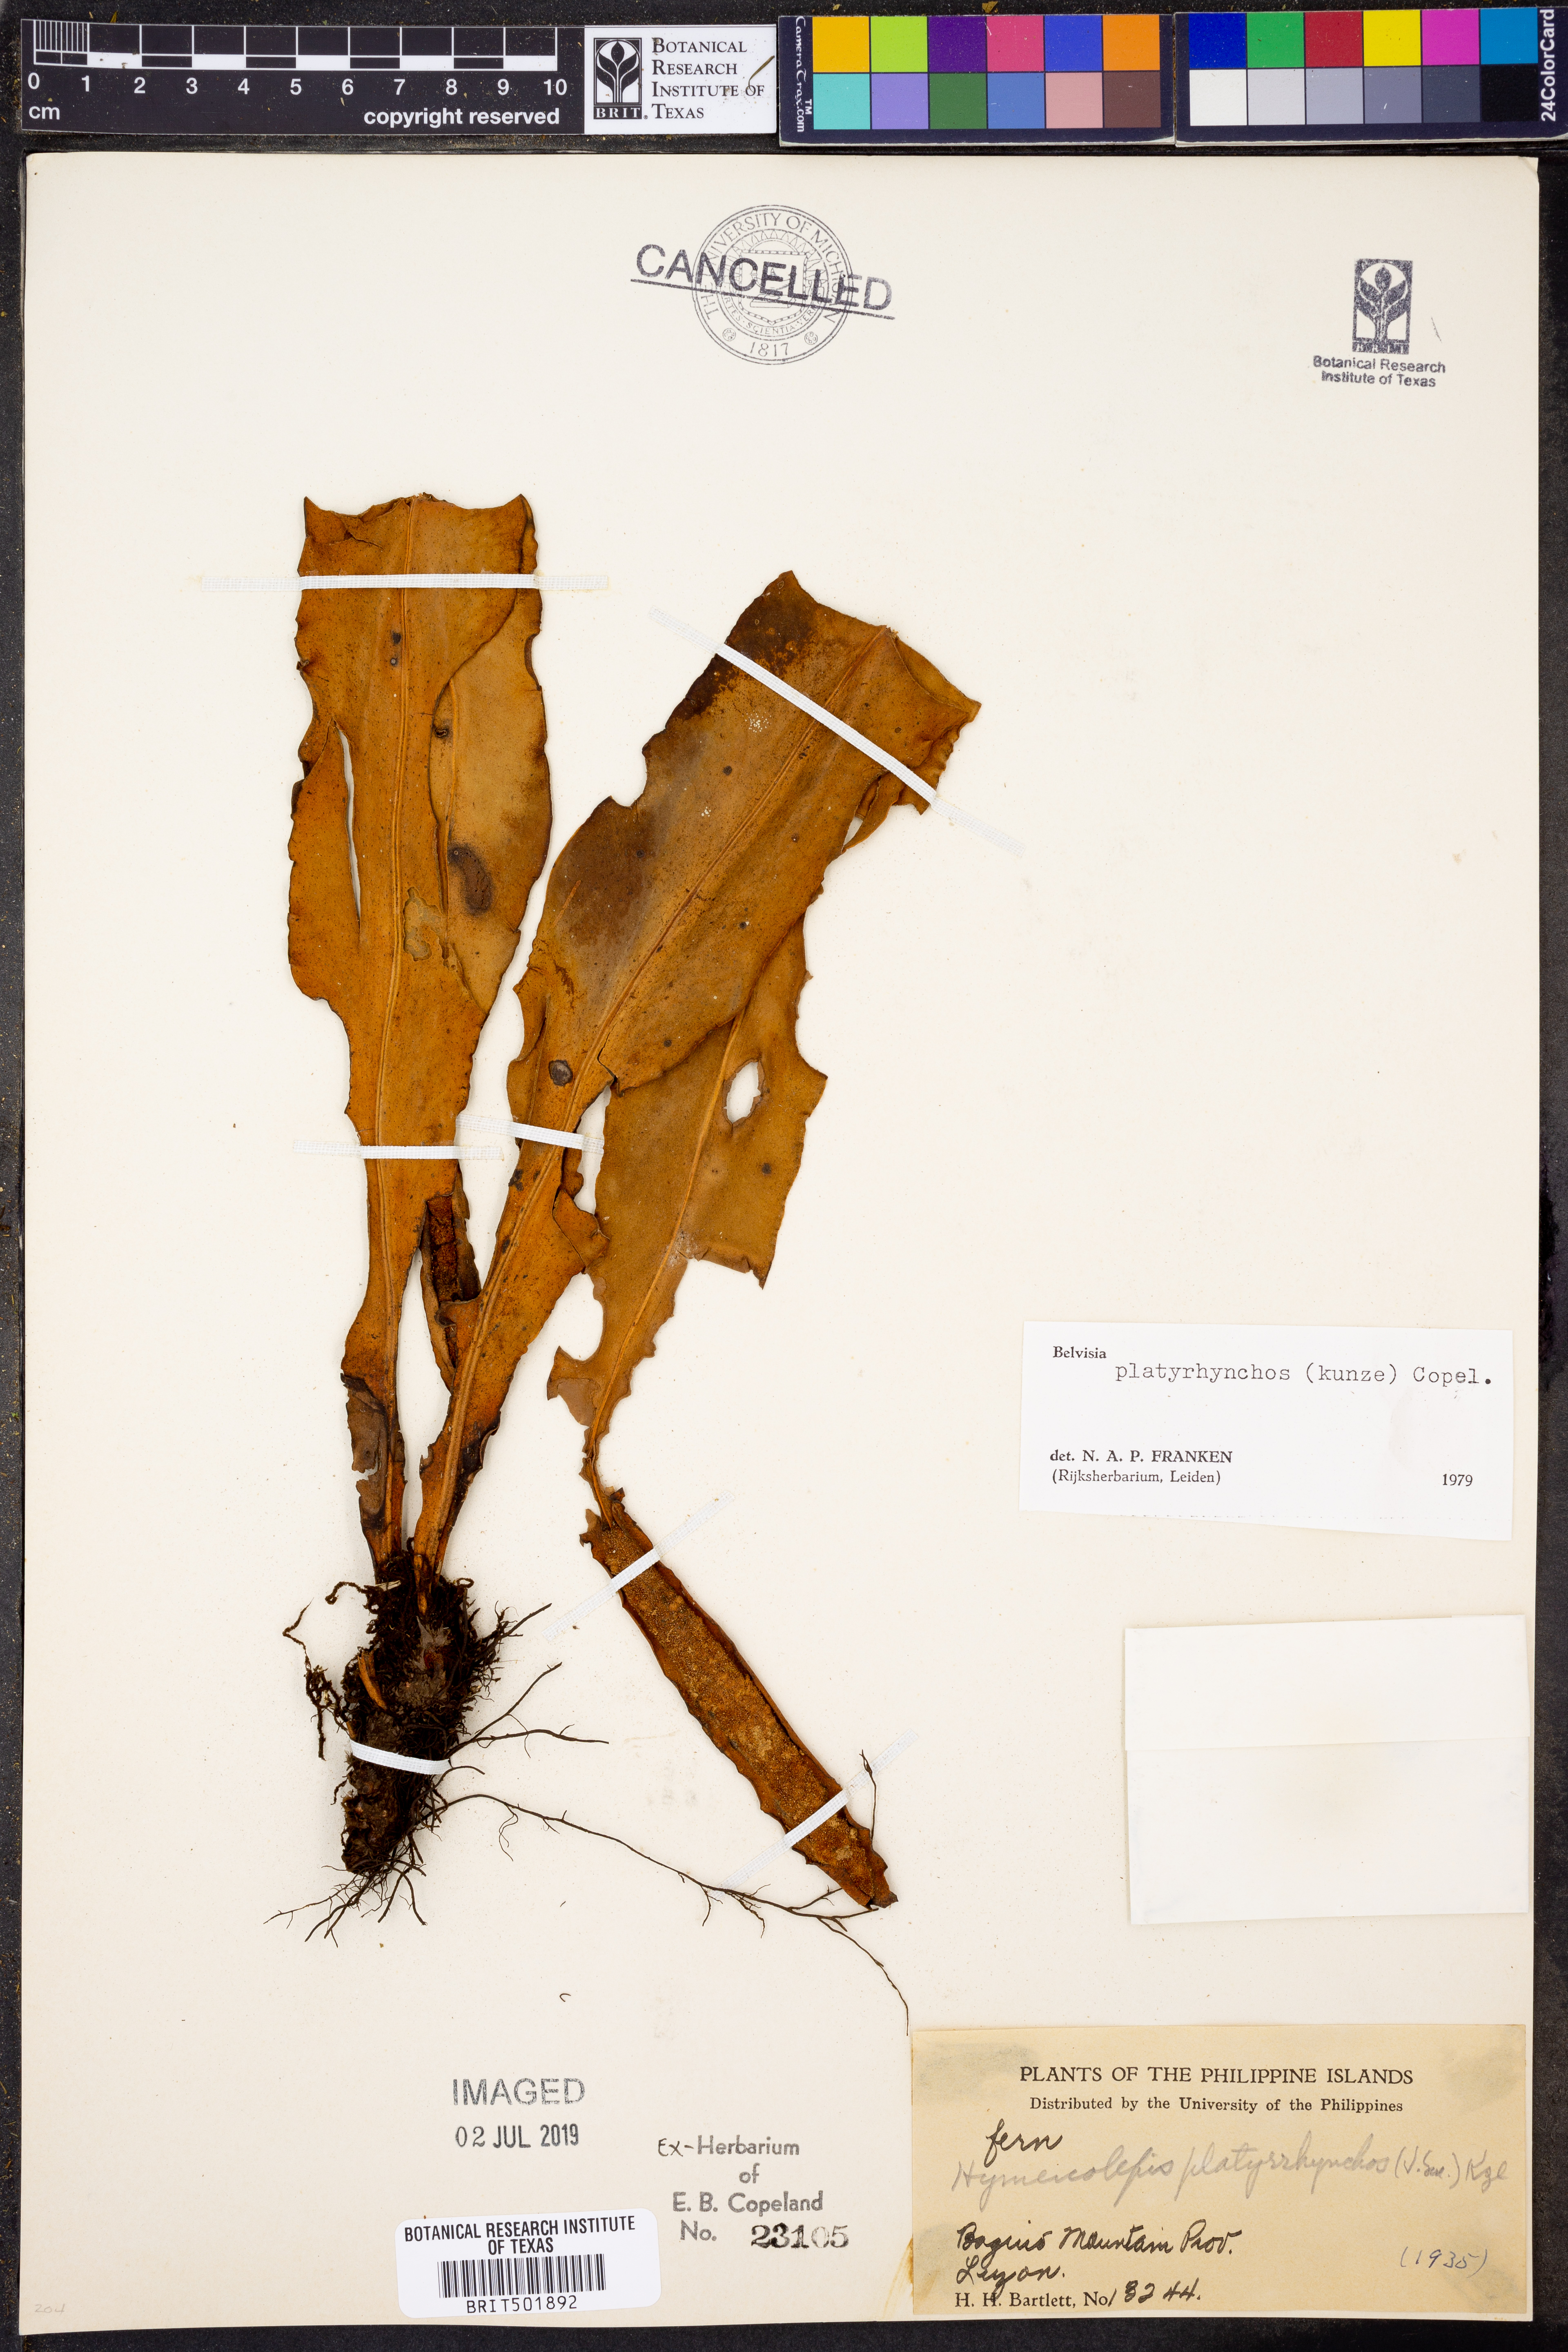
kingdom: Plantae
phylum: Tracheophyta
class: Polypodiopsida
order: Polypodiales
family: Polypodiaceae
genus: Lepisorus
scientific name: Lepisorus platyrhynchos
